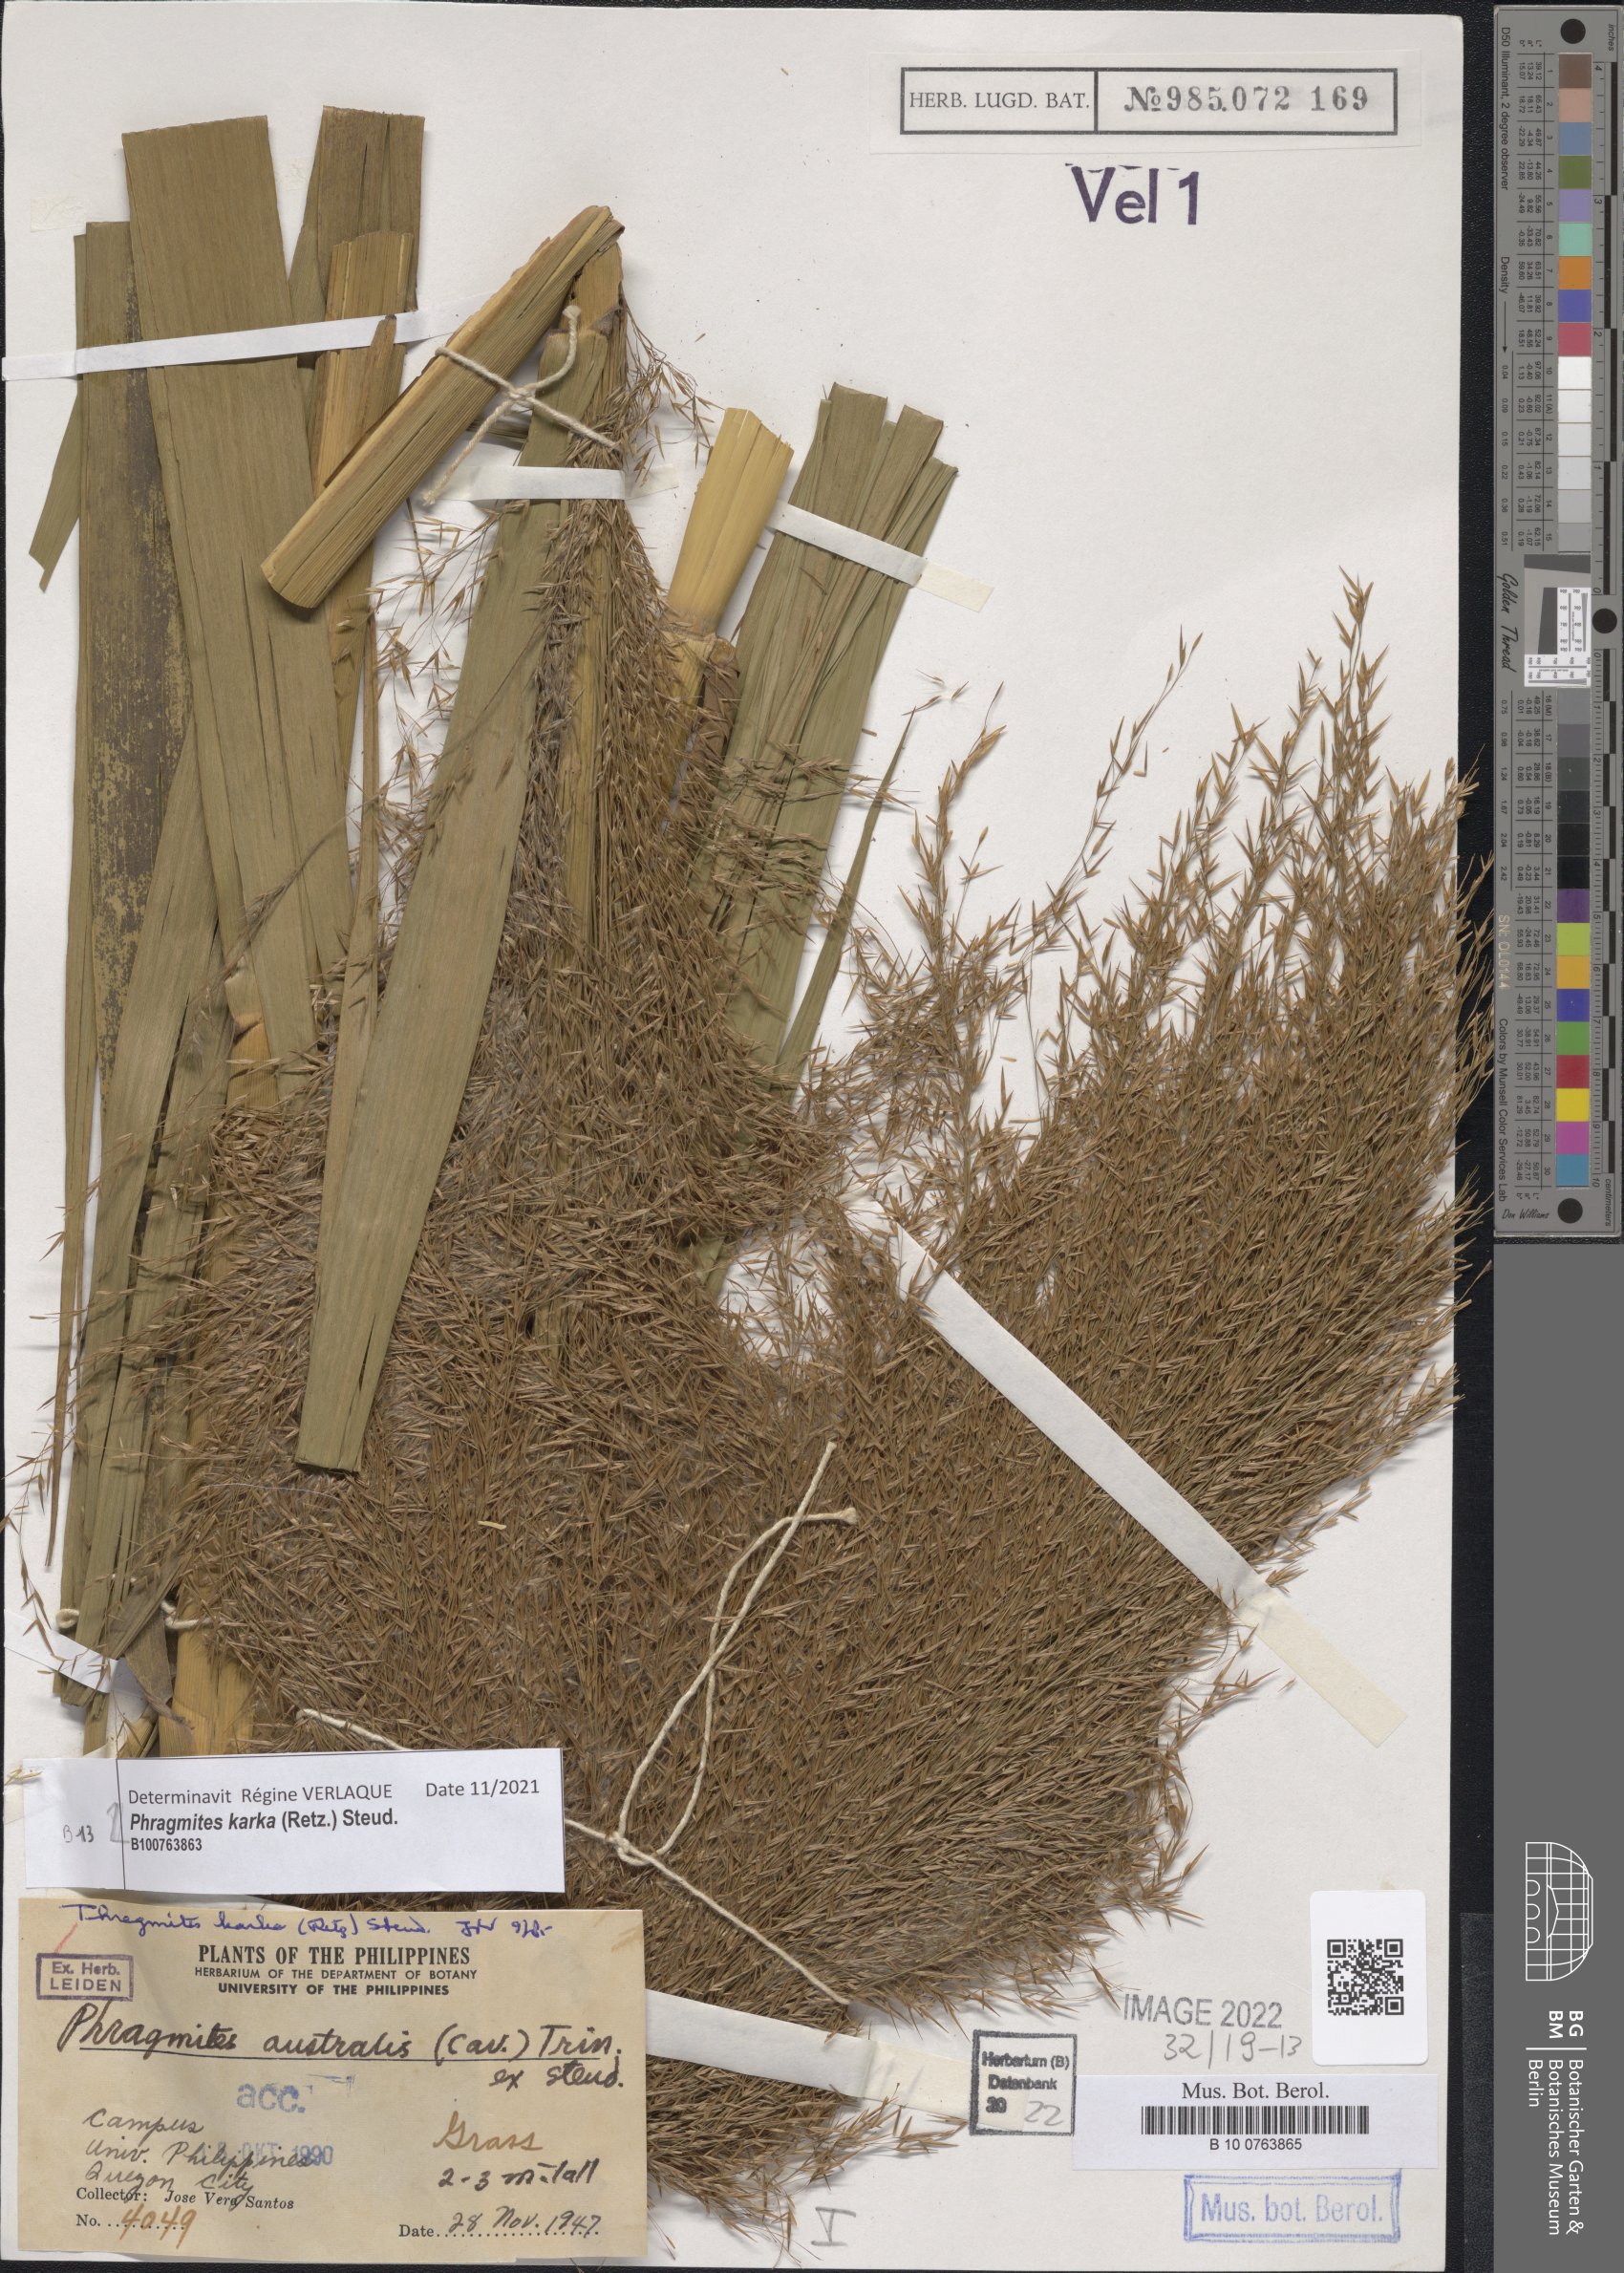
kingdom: Plantae
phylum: Tracheophyta
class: Liliopsida
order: Poales
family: Poaceae
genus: Phragmites
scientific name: Phragmites karka
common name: Tropical reed
